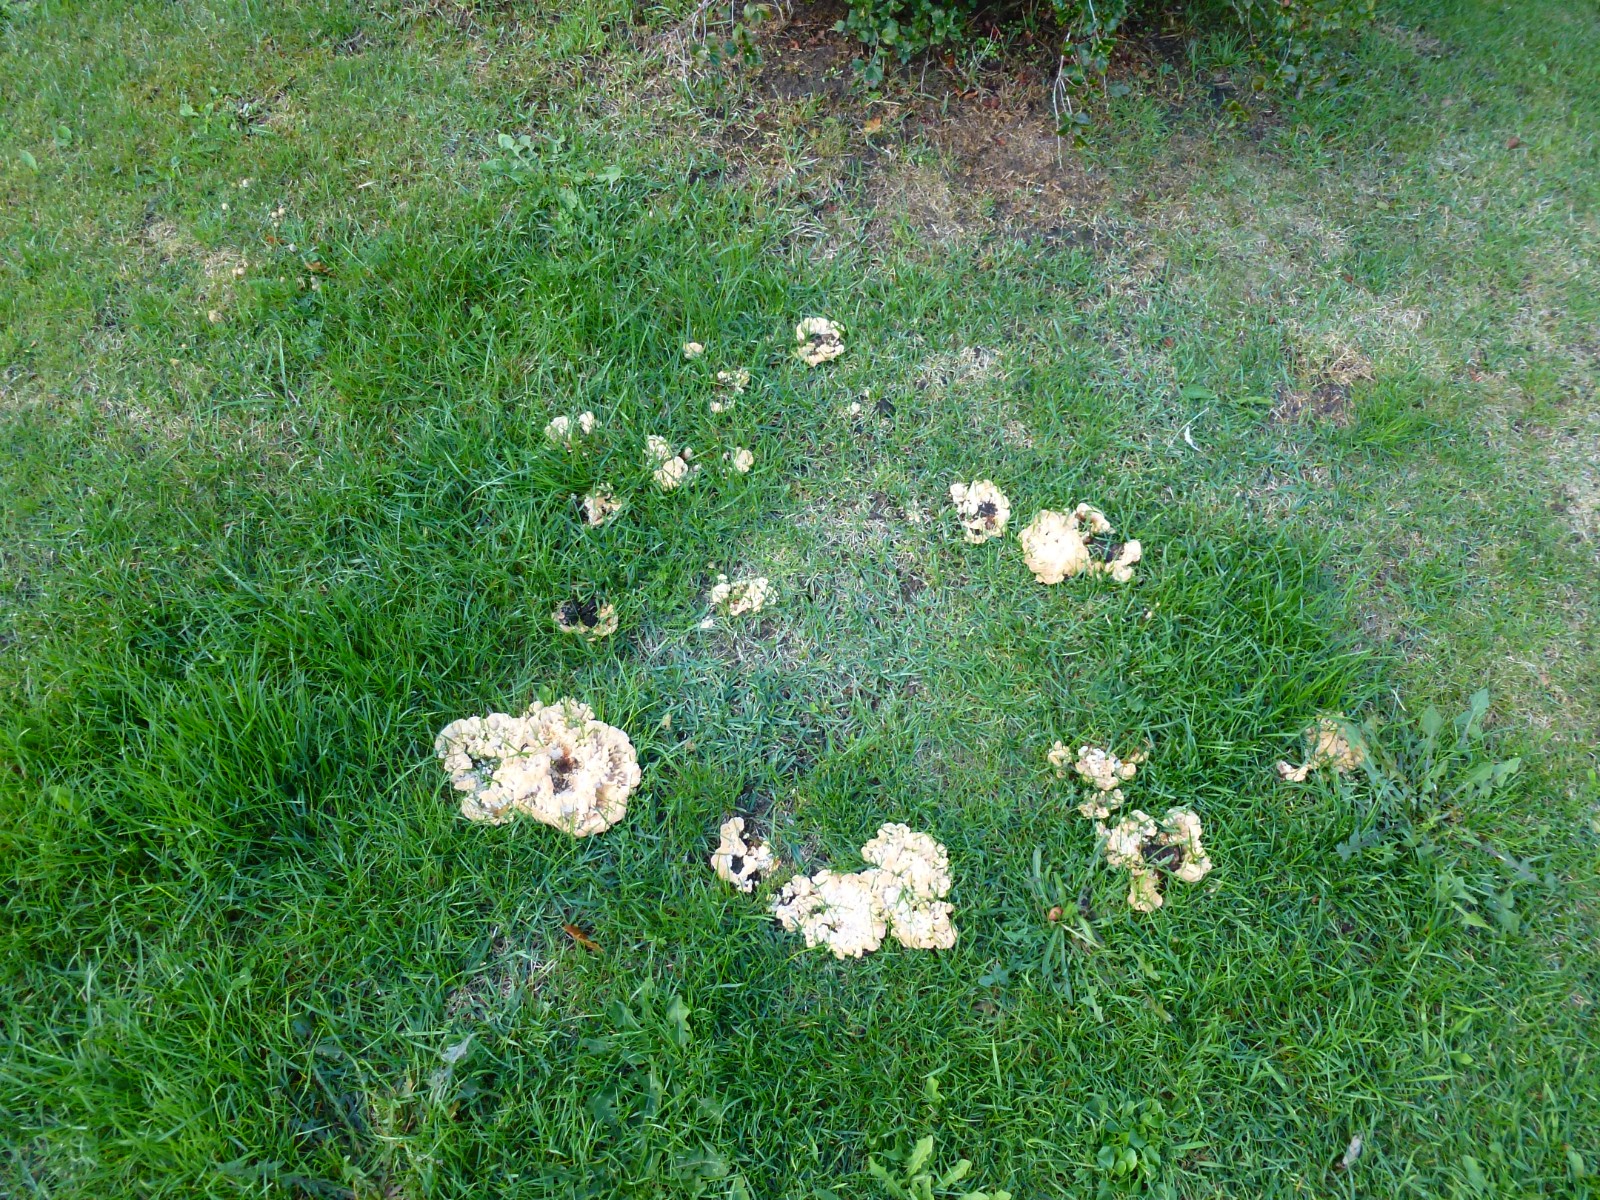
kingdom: Fungi
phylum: Basidiomycota
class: Agaricomycetes
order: Polyporales
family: Podoscyphaceae
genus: Abortiporus
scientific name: Abortiporus biennis
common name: rødmende pjalteporesvamp
